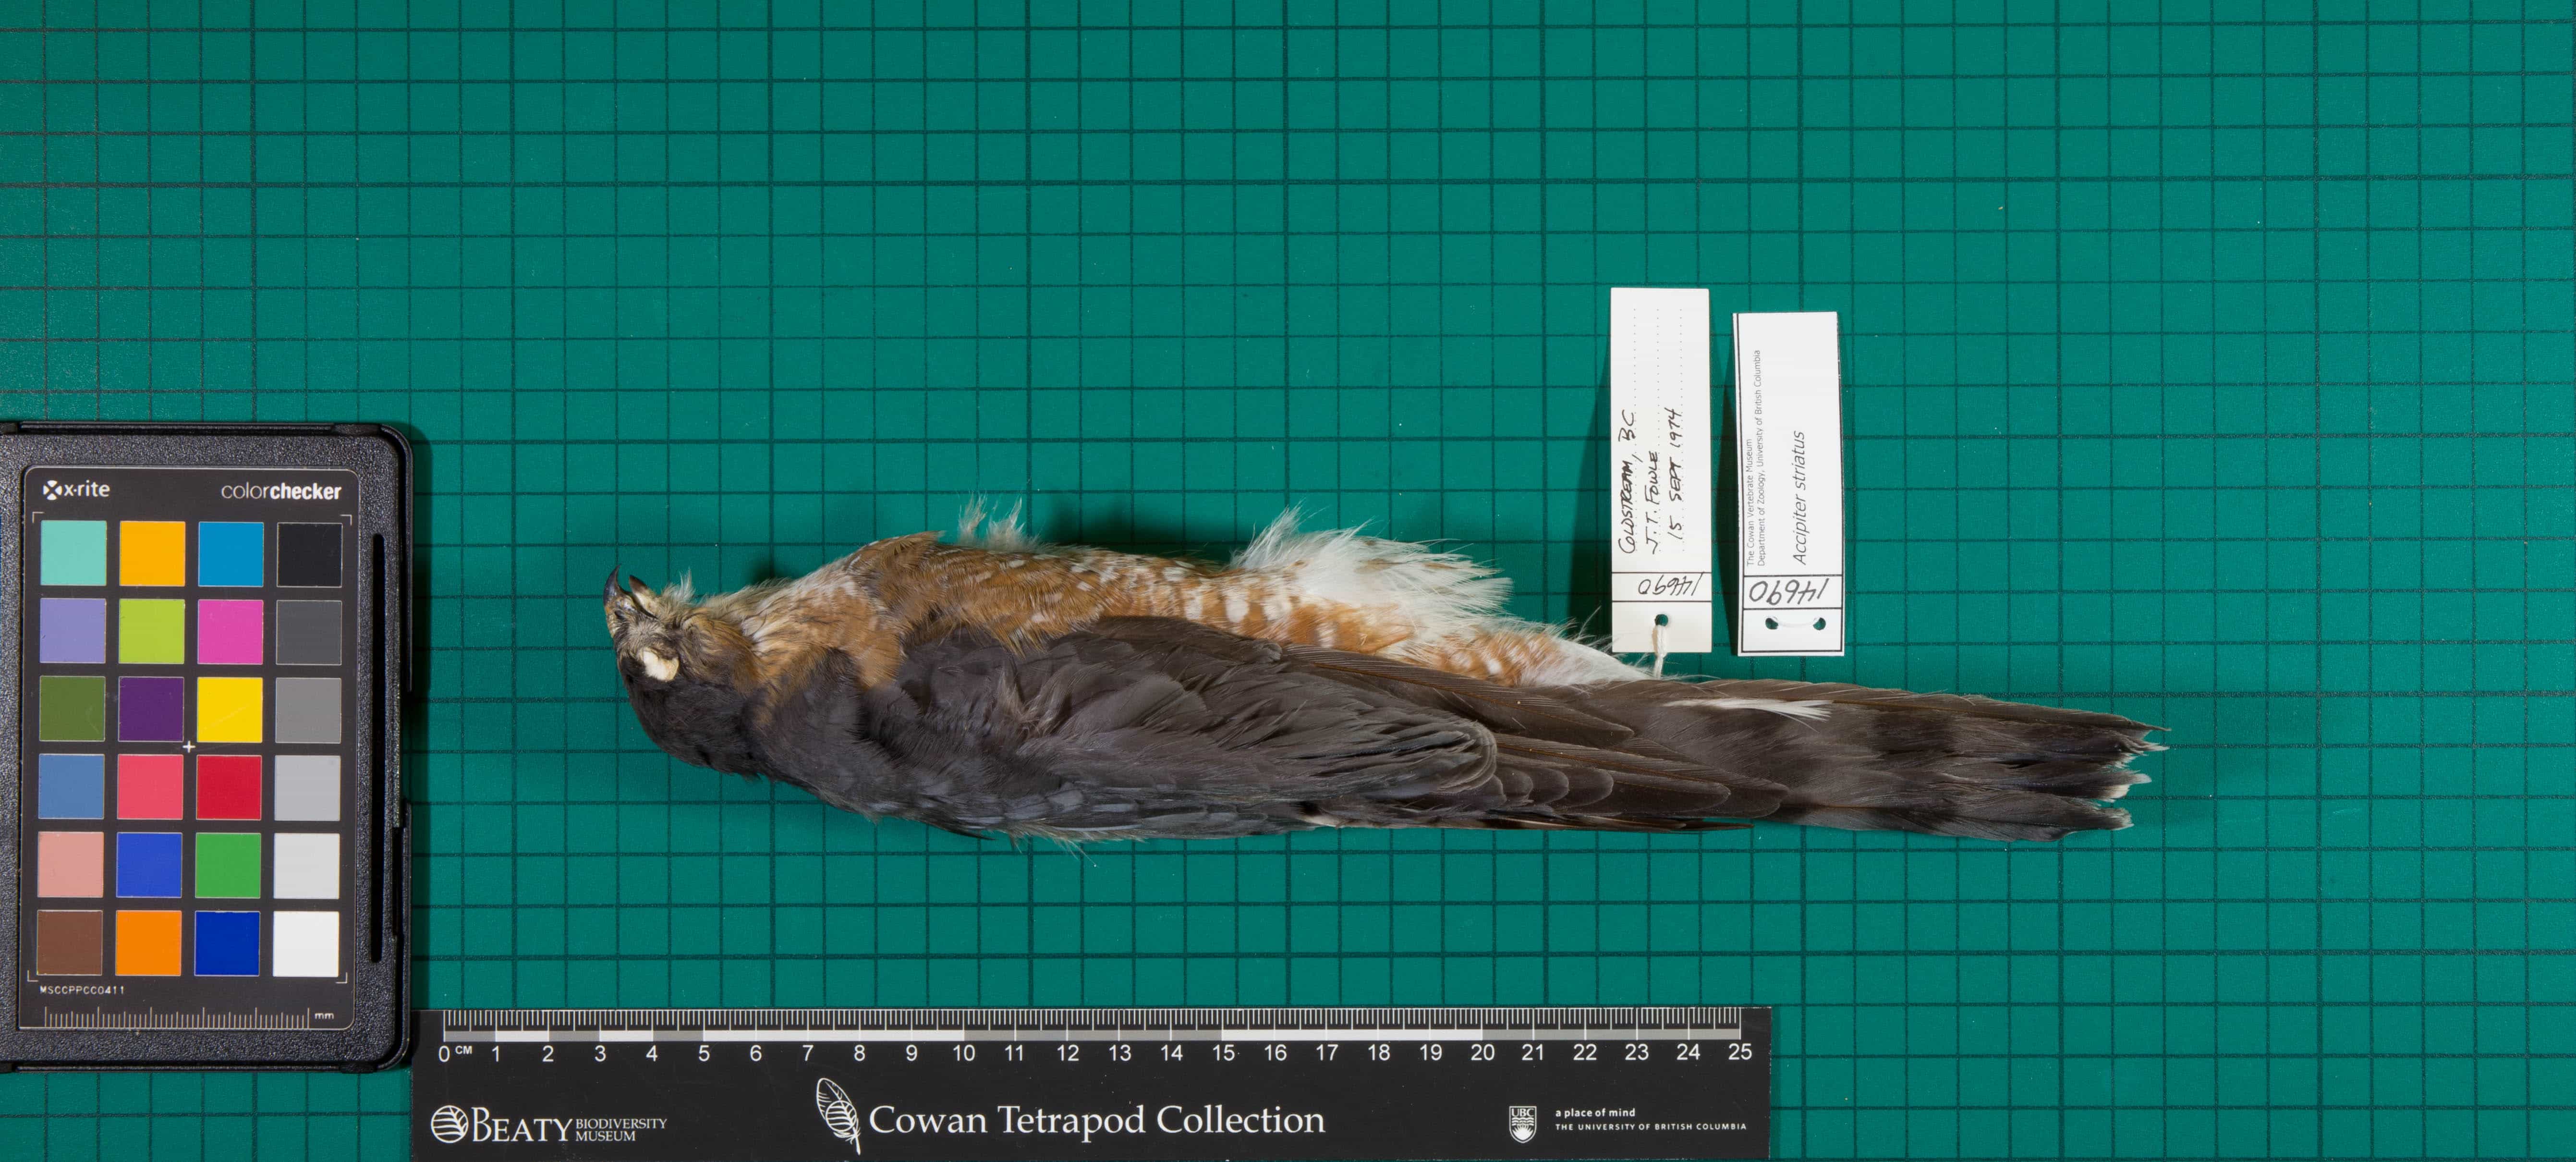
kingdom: Animalia
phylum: Chordata
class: Aves
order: Accipitriformes
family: Accipitridae
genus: Accipiter
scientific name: Accipiter striatus
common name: Sharp-shinned Hawk
